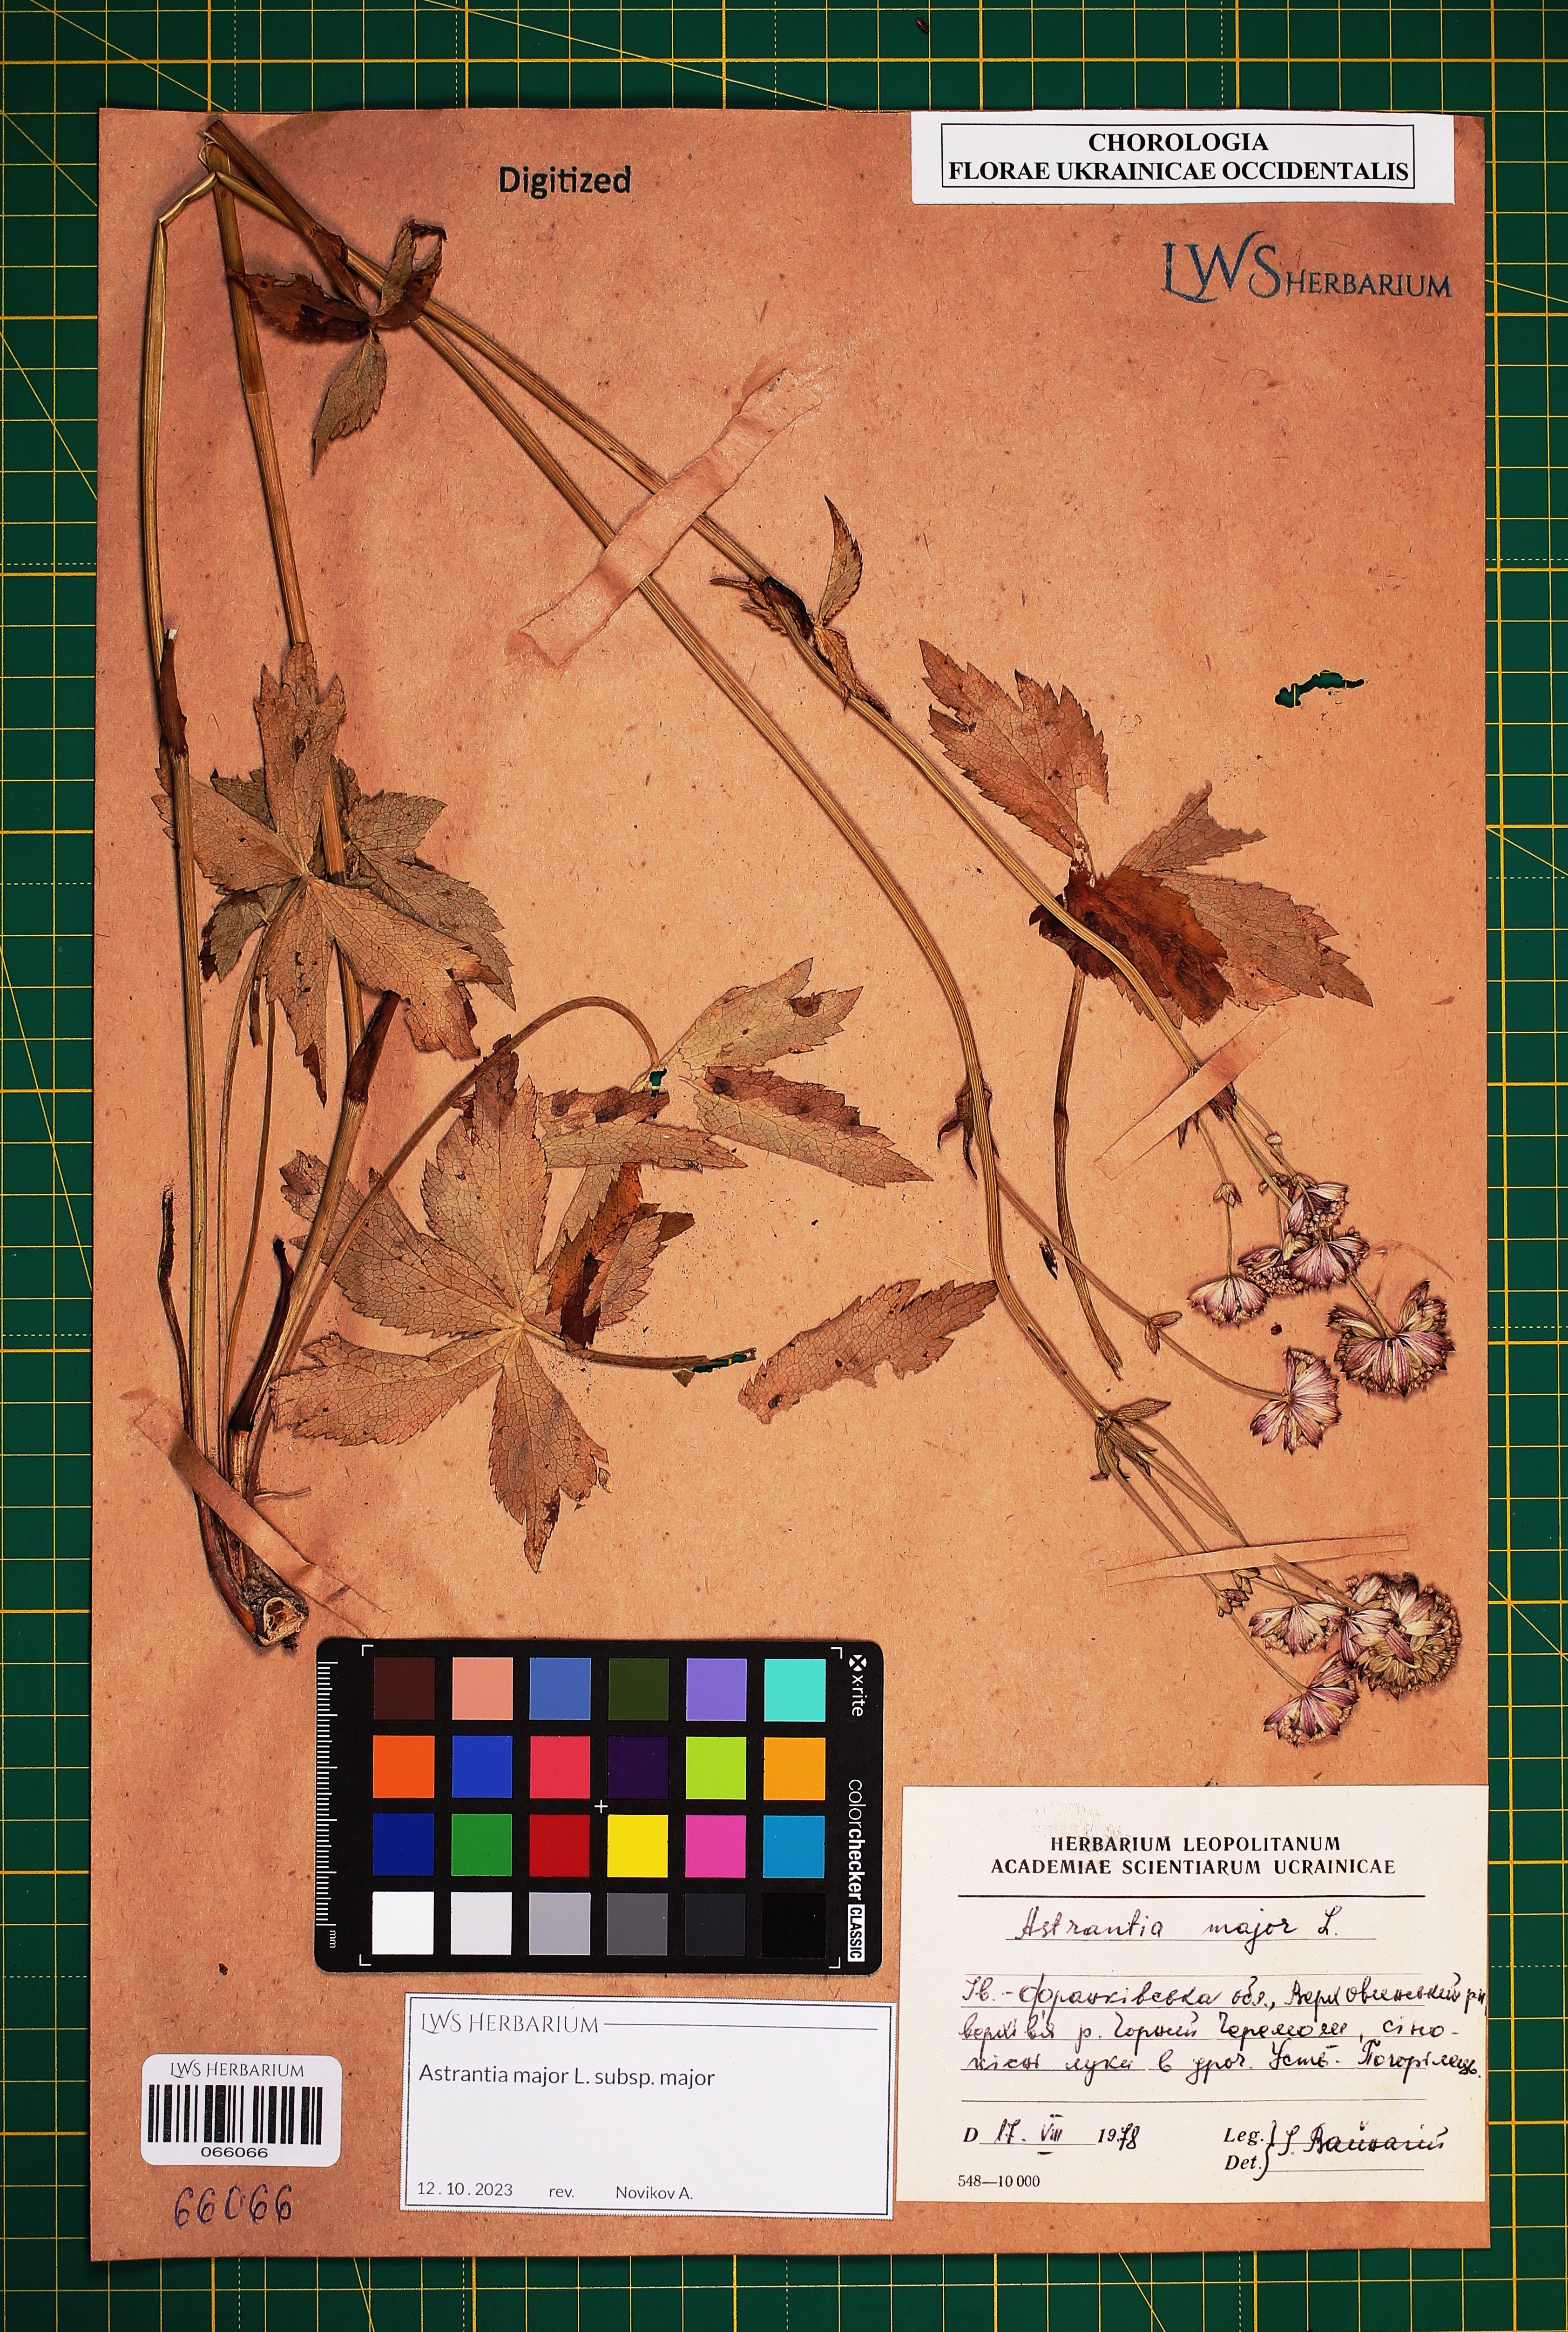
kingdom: Plantae
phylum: Tracheophyta
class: Magnoliopsida
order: Apiales
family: Apiaceae
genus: Astrantia
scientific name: Astrantia major
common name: Greater masterwort
